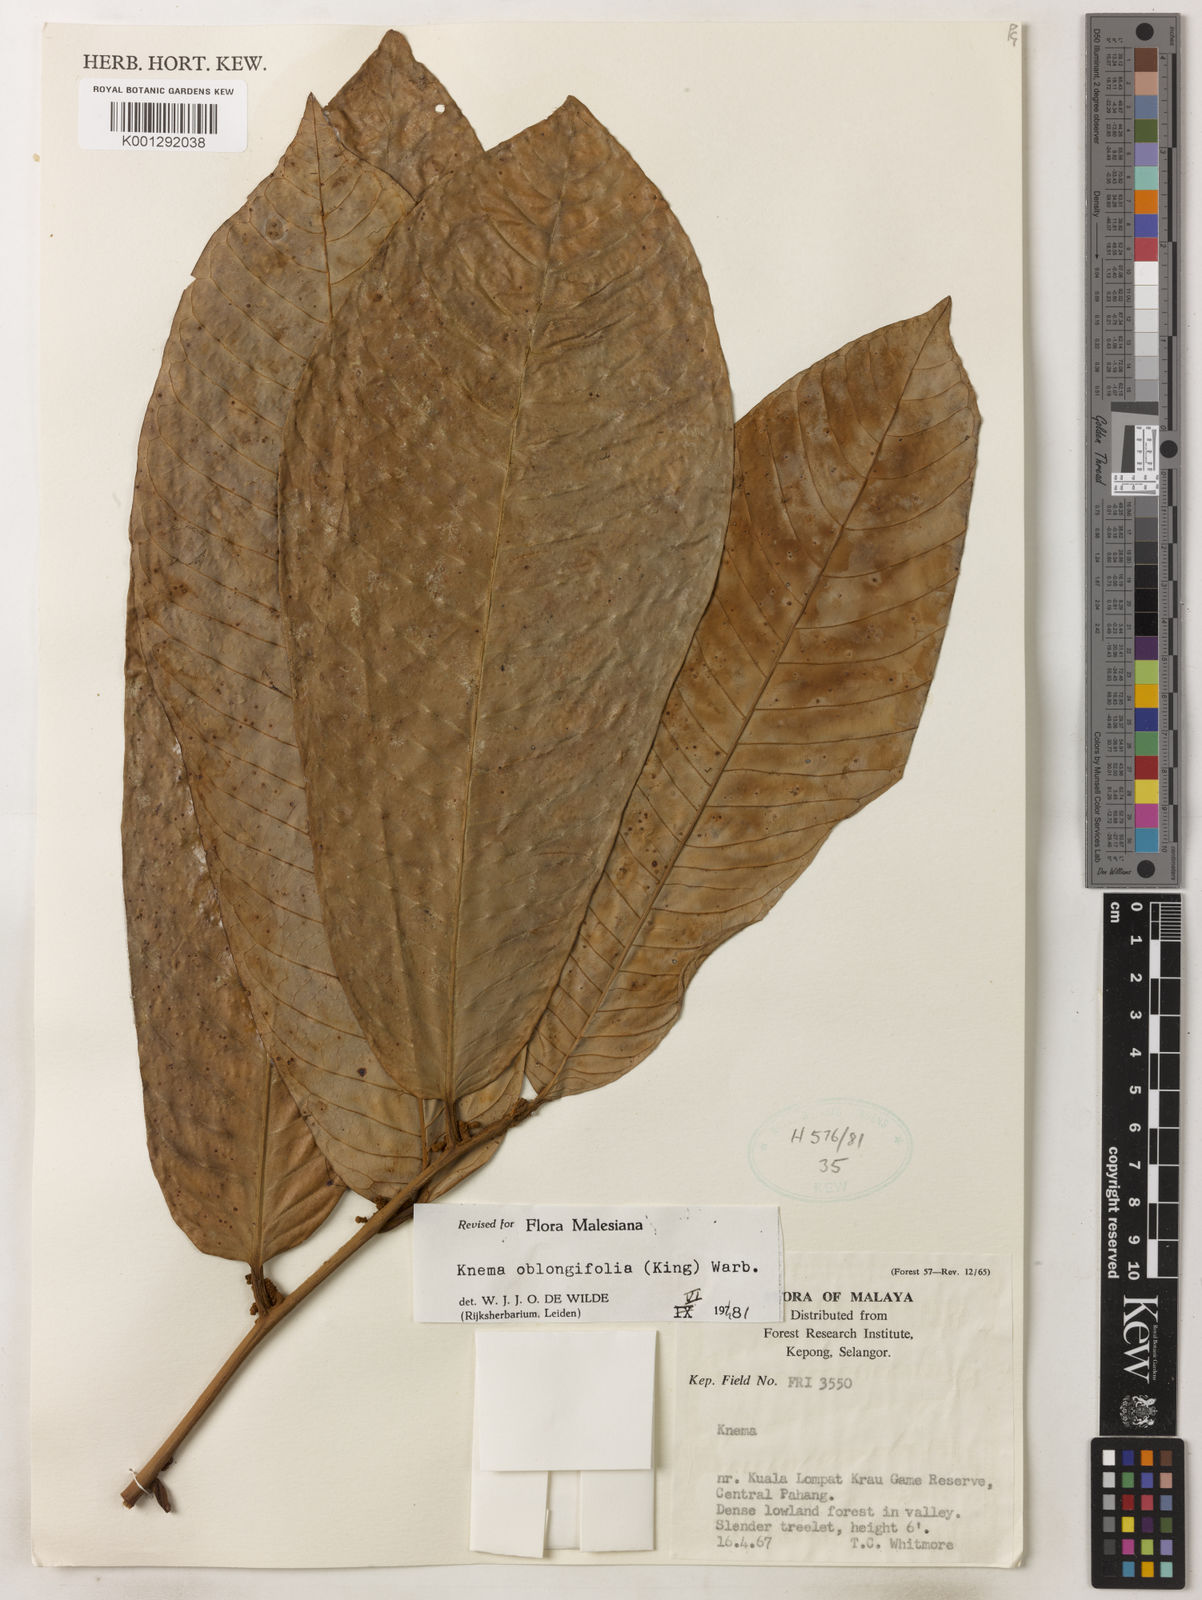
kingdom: Plantae
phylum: Tracheophyta
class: Magnoliopsida
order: Magnoliales
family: Myristicaceae
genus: Knema
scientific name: Knema oblongifolia
